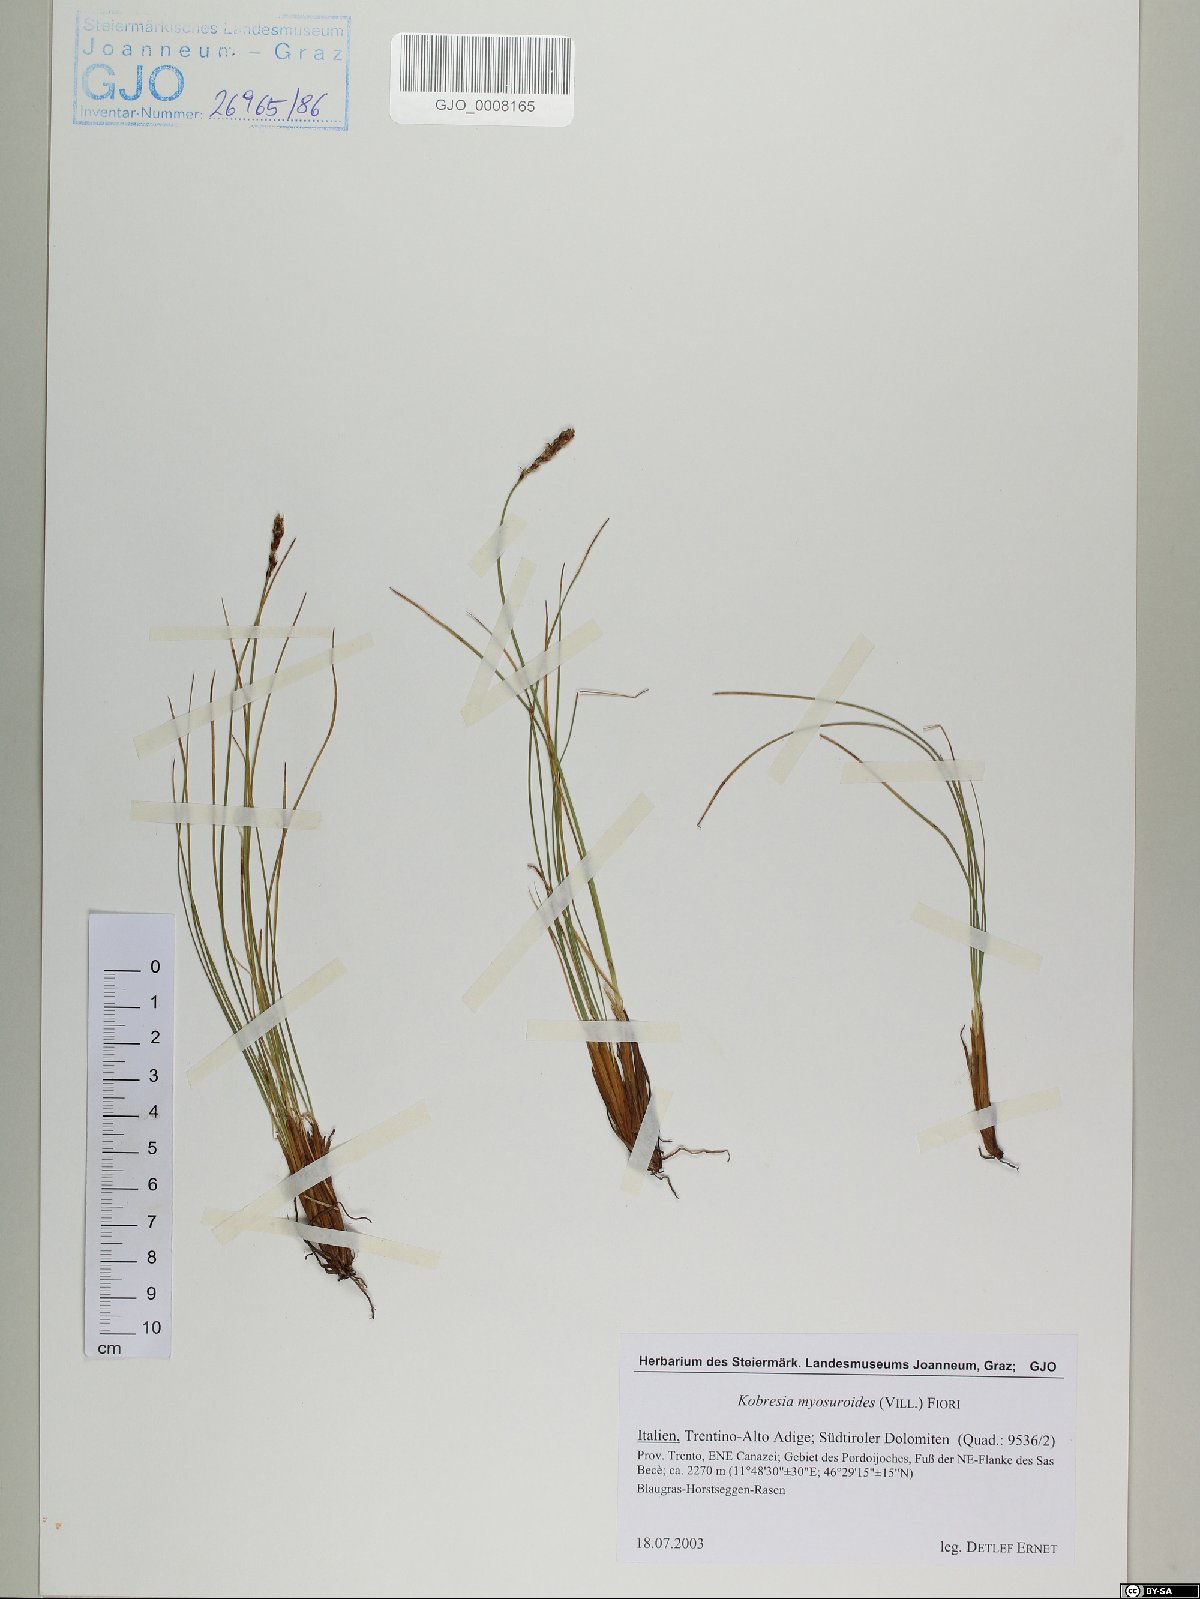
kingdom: Plantae
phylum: Tracheophyta
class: Liliopsida
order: Poales
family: Cyperaceae
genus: Carex
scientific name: Carex myosuroides
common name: Bellard's bog sedge
